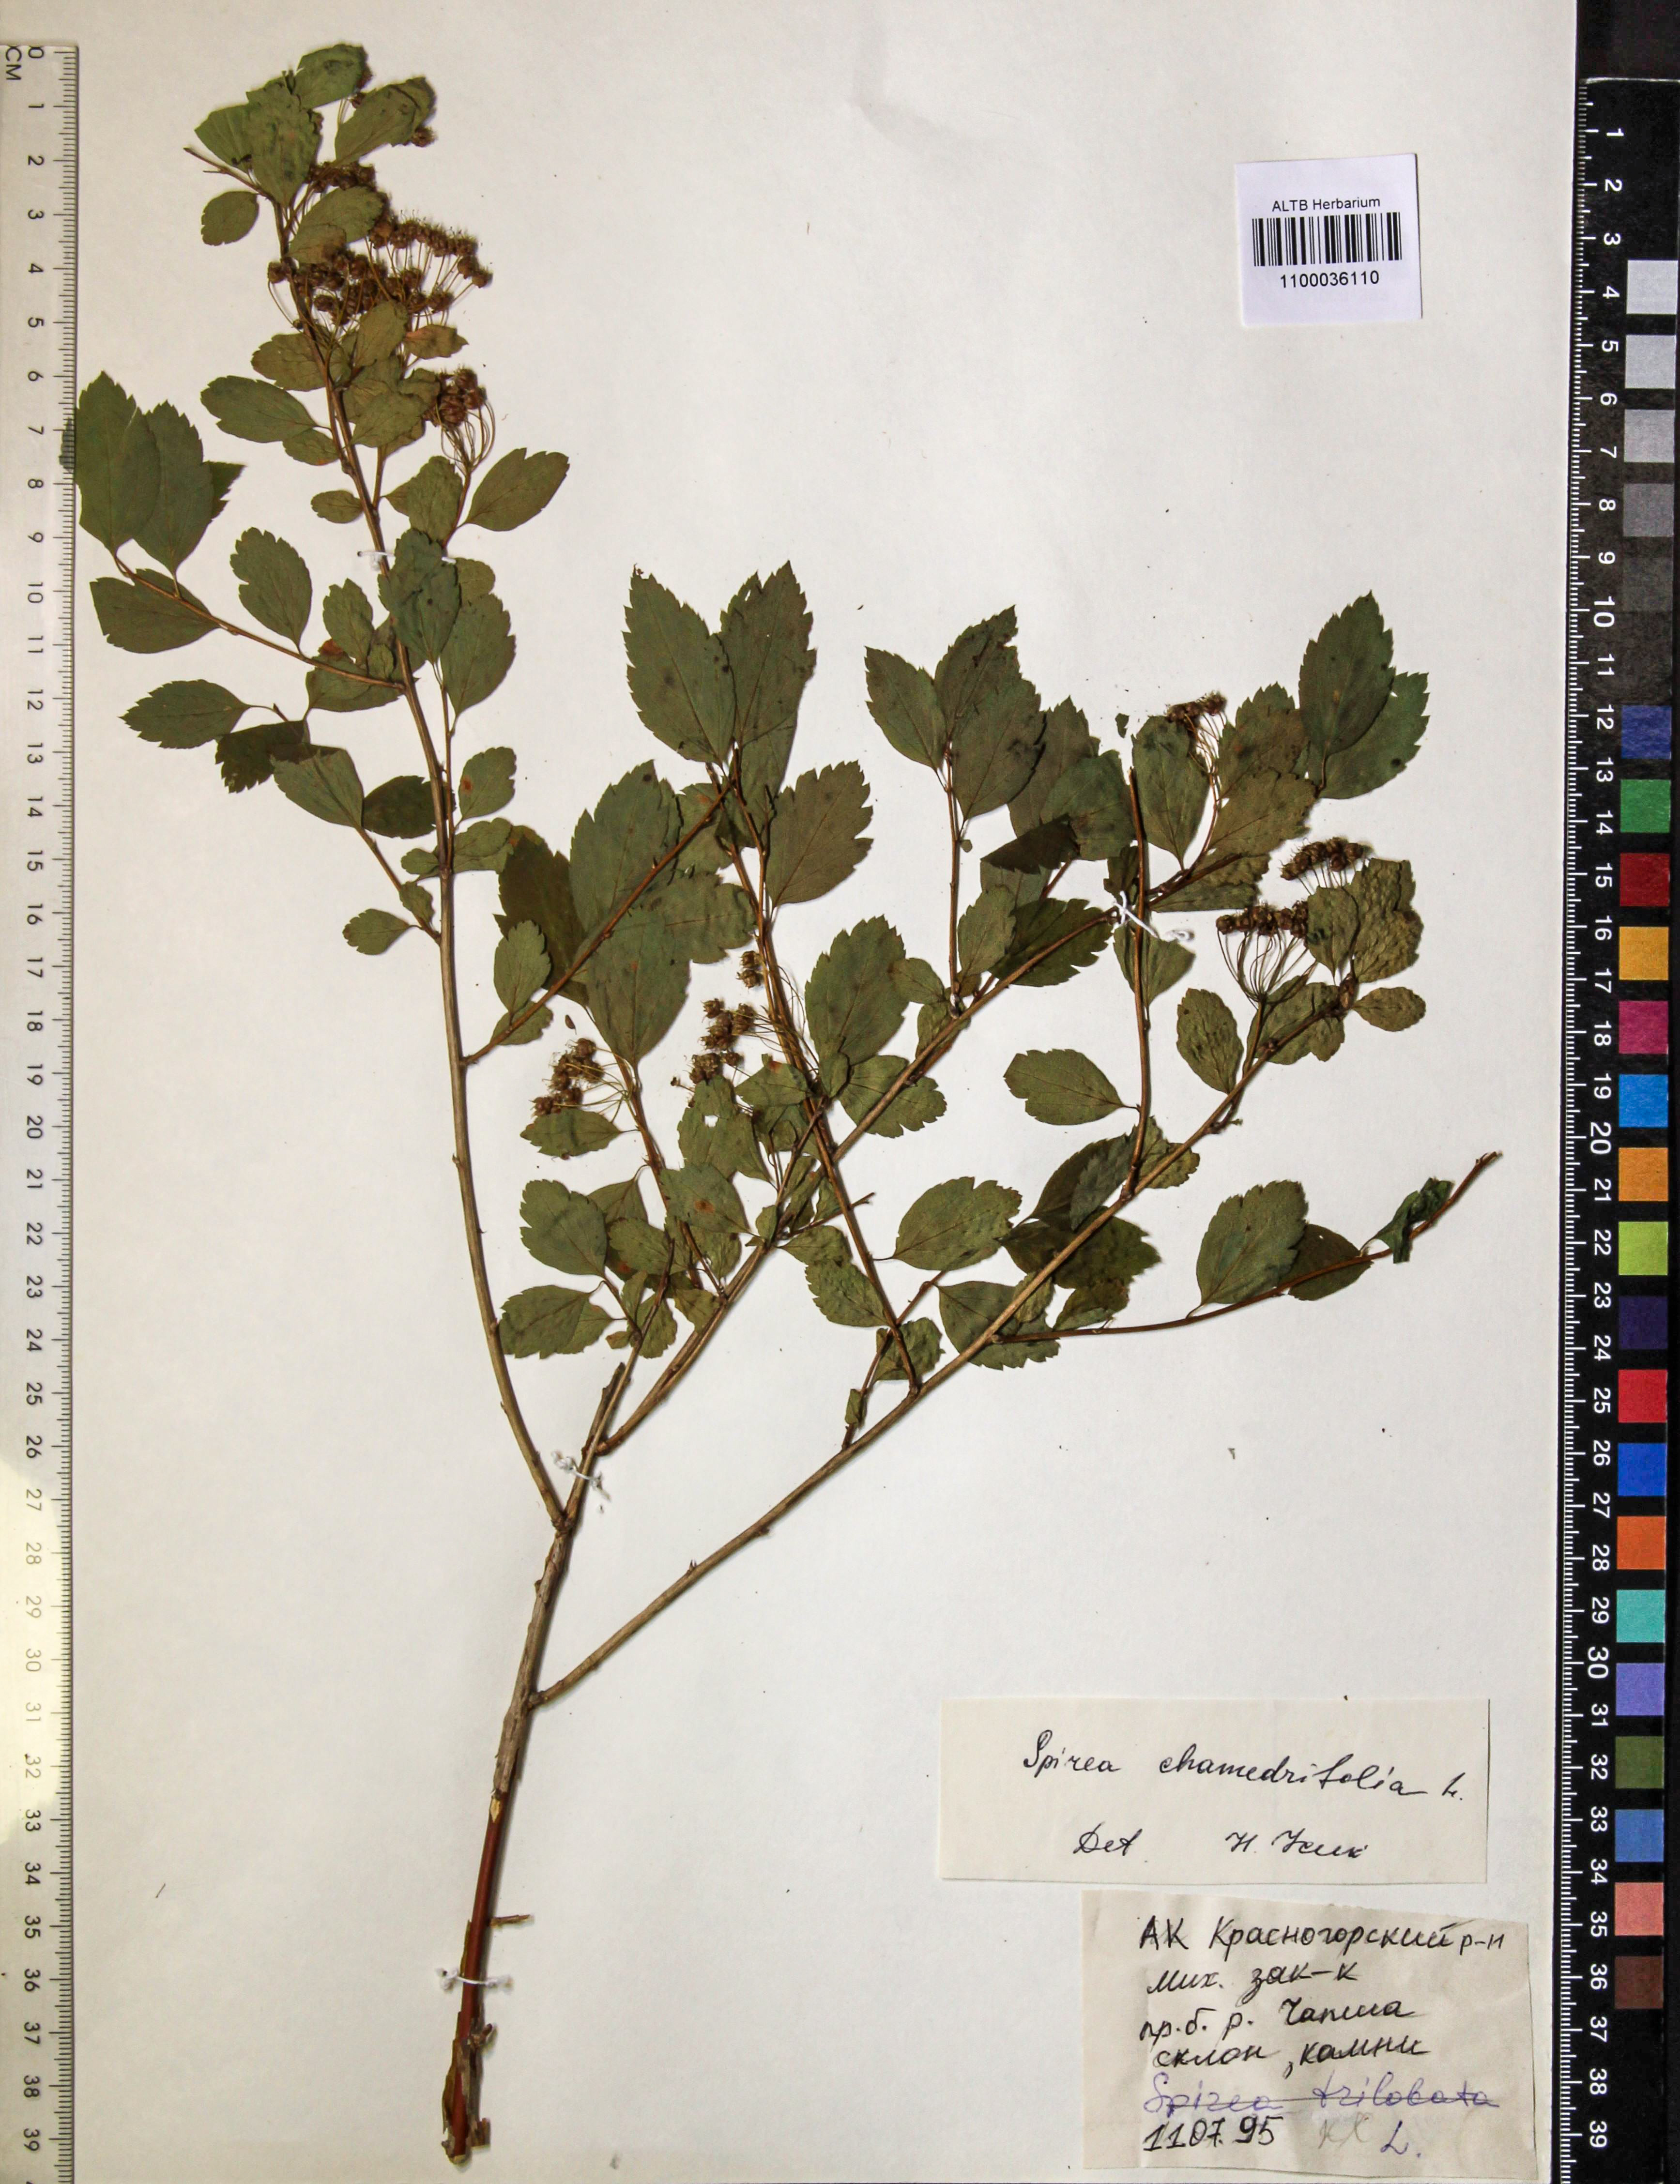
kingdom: Plantae
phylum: Tracheophyta
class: Magnoliopsida
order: Rosales
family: Rosaceae
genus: Spiraea
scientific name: Spiraea chamaedryfolia
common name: Elm-leaved spiraea
